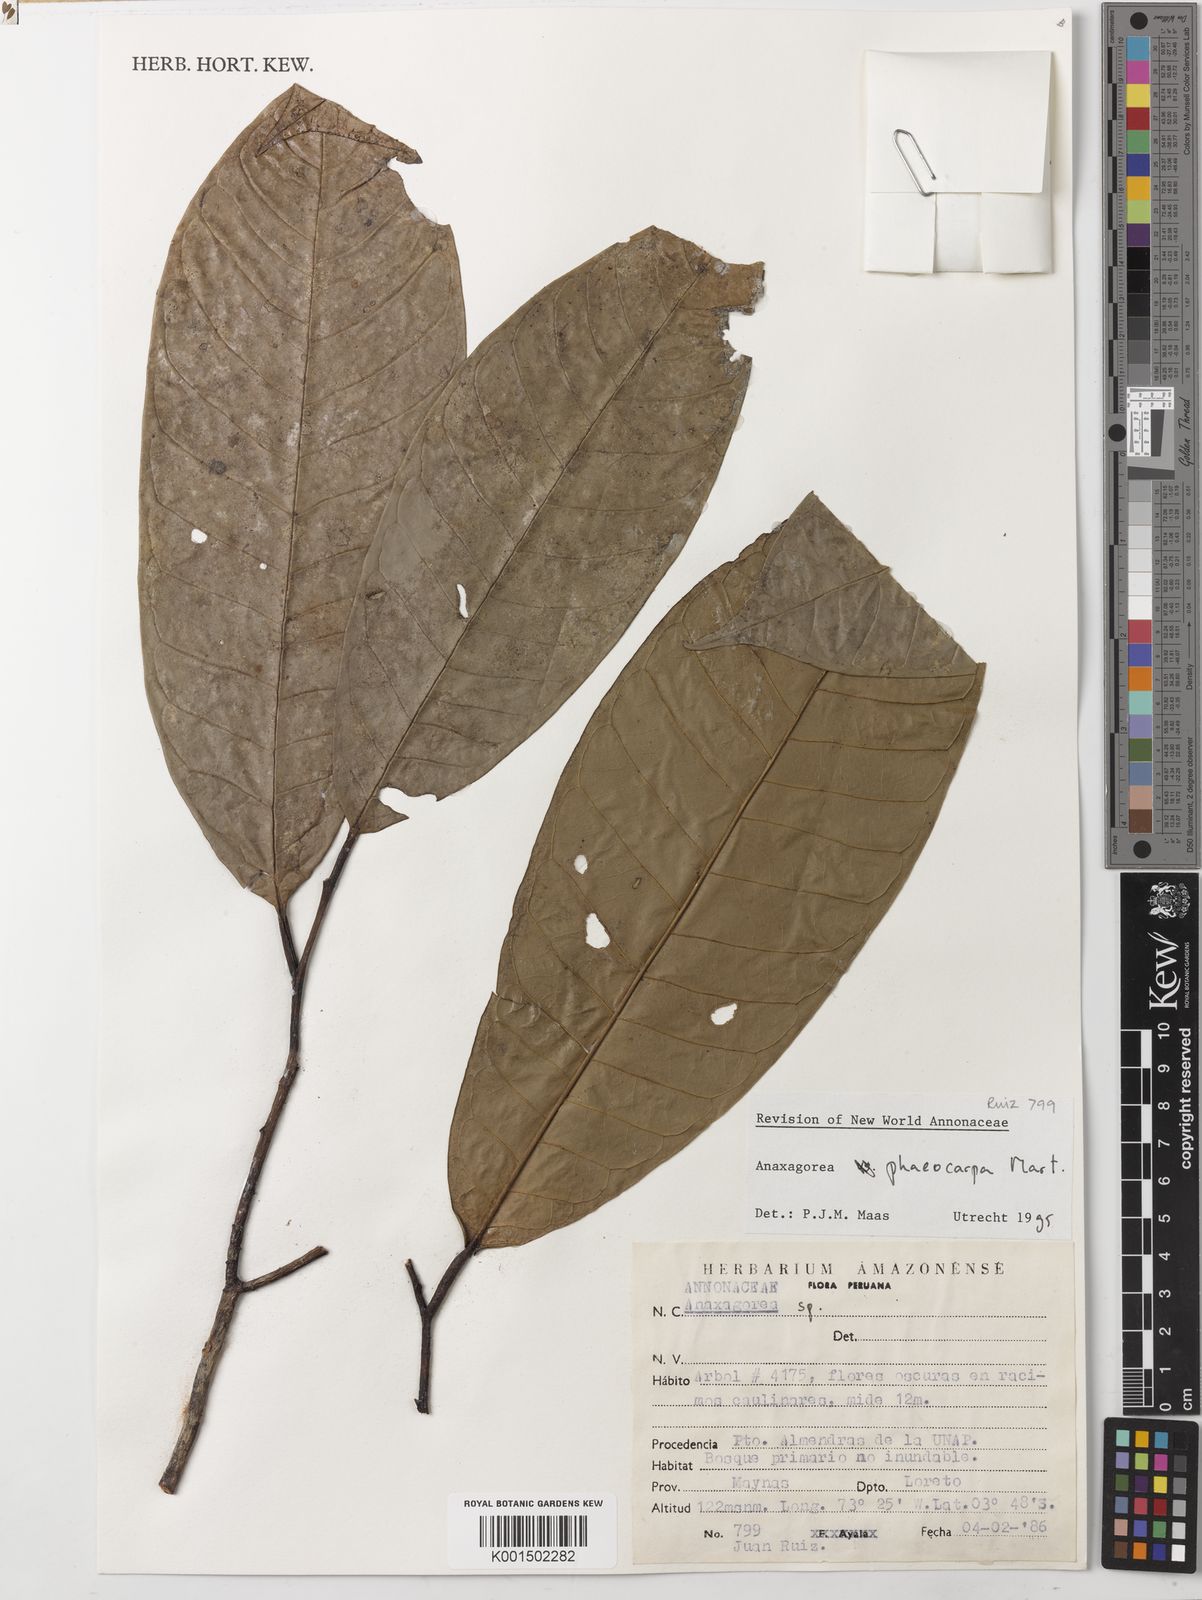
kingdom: Plantae
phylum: Tracheophyta
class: Magnoliopsida
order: Magnoliales
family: Annonaceae
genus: Anaxagorea
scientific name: Anaxagorea phaeocarpa
